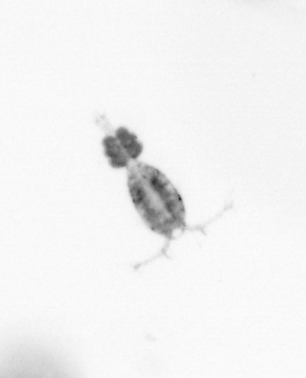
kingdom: Animalia
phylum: Arthropoda
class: Copepoda
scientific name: Copepoda
